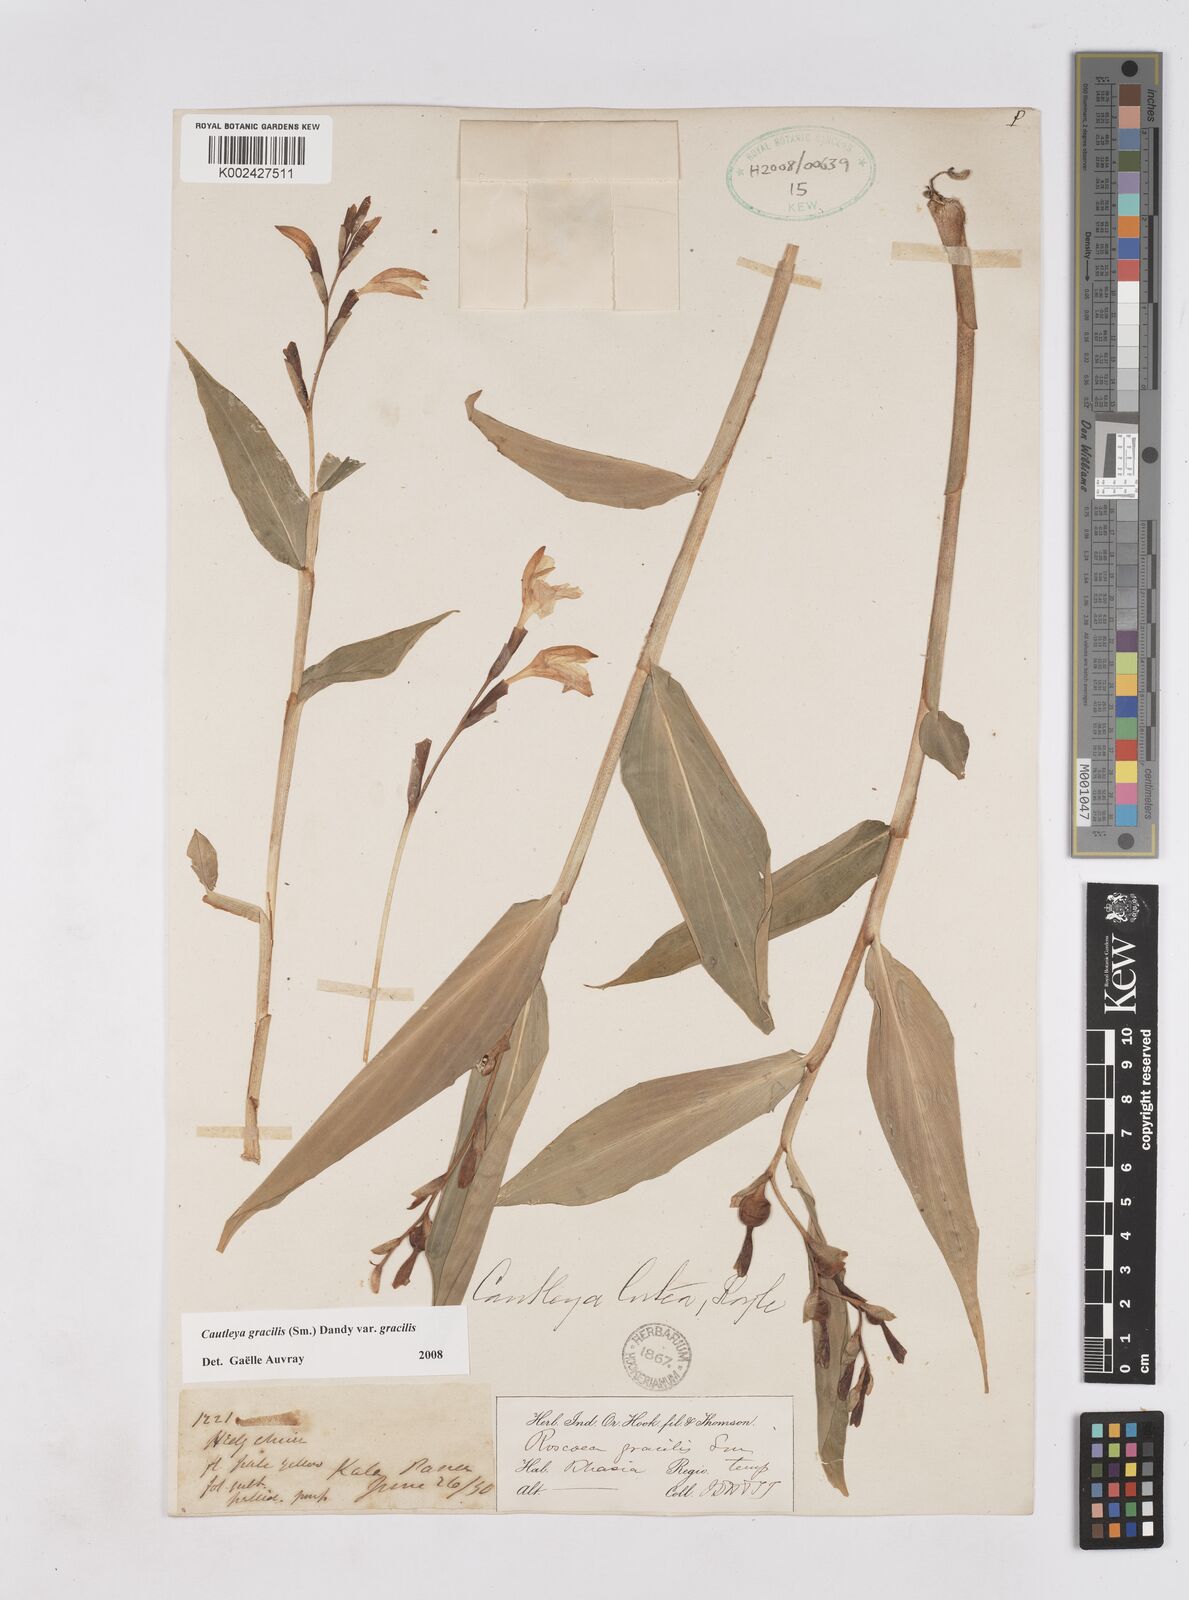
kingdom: Plantae
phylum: Tracheophyta
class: Liliopsida
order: Zingiberales
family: Zingiberaceae
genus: Cautleya
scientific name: Cautleya gracilis
